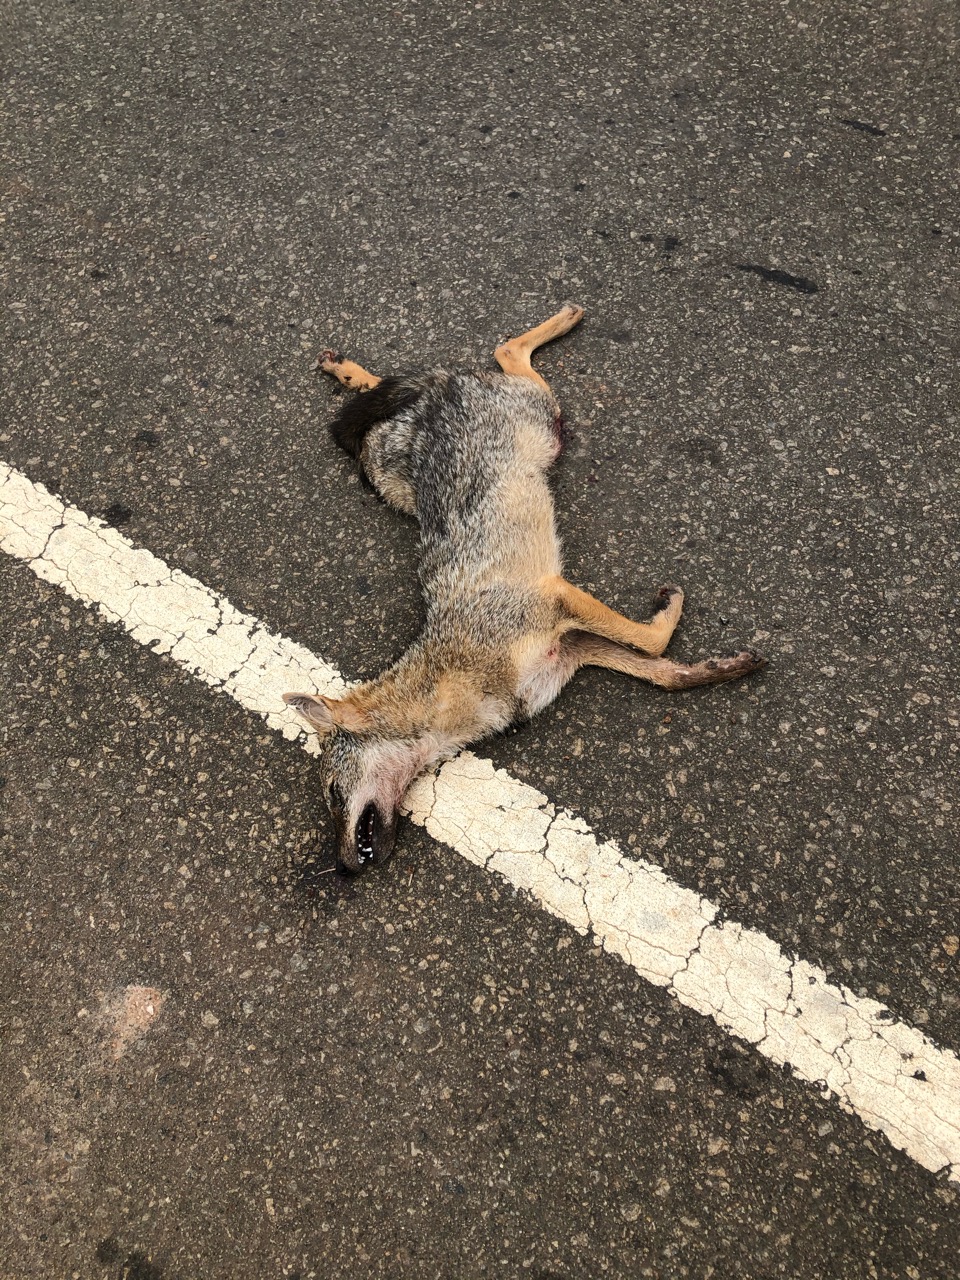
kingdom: Animalia
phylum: Chordata
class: Mammalia
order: Carnivora
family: Canidae
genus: Canis
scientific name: Canis aureus
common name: Golden jackal
